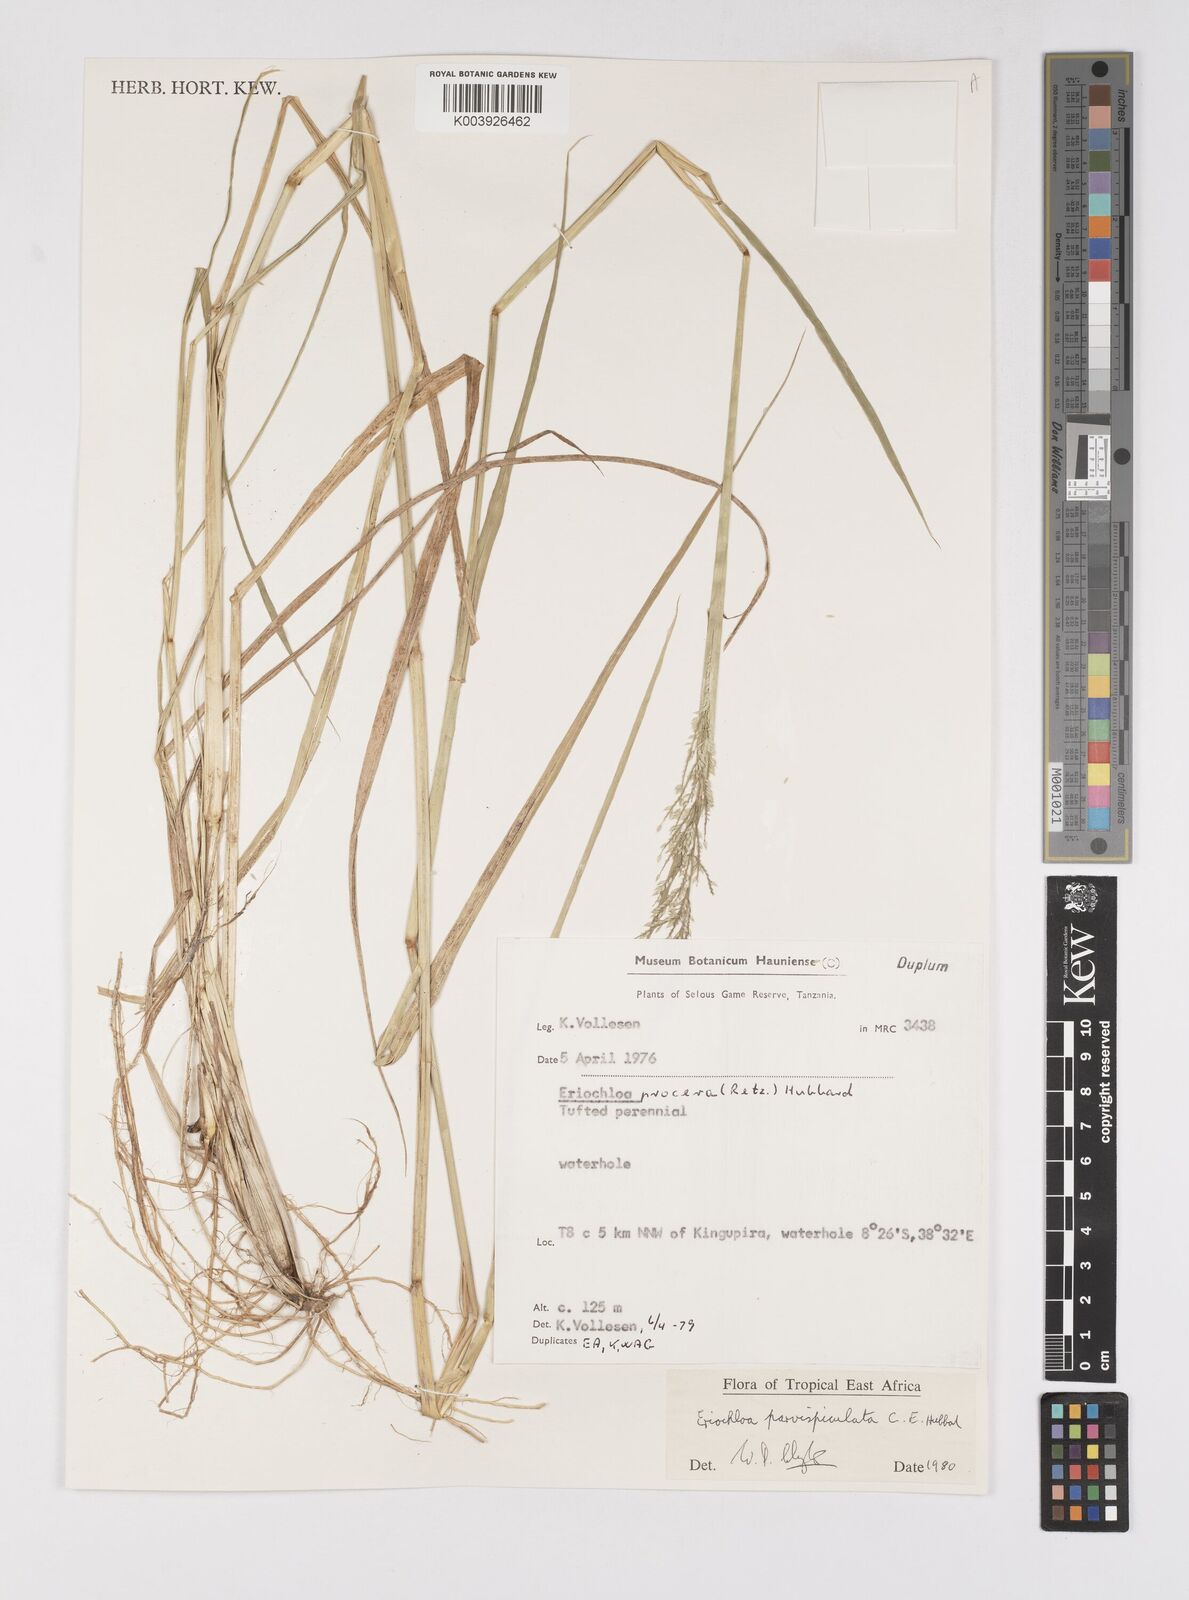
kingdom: Plantae
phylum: Tracheophyta
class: Liliopsida
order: Poales
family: Poaceae
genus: Eriochloa
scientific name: Eriochloa parvispiculata
